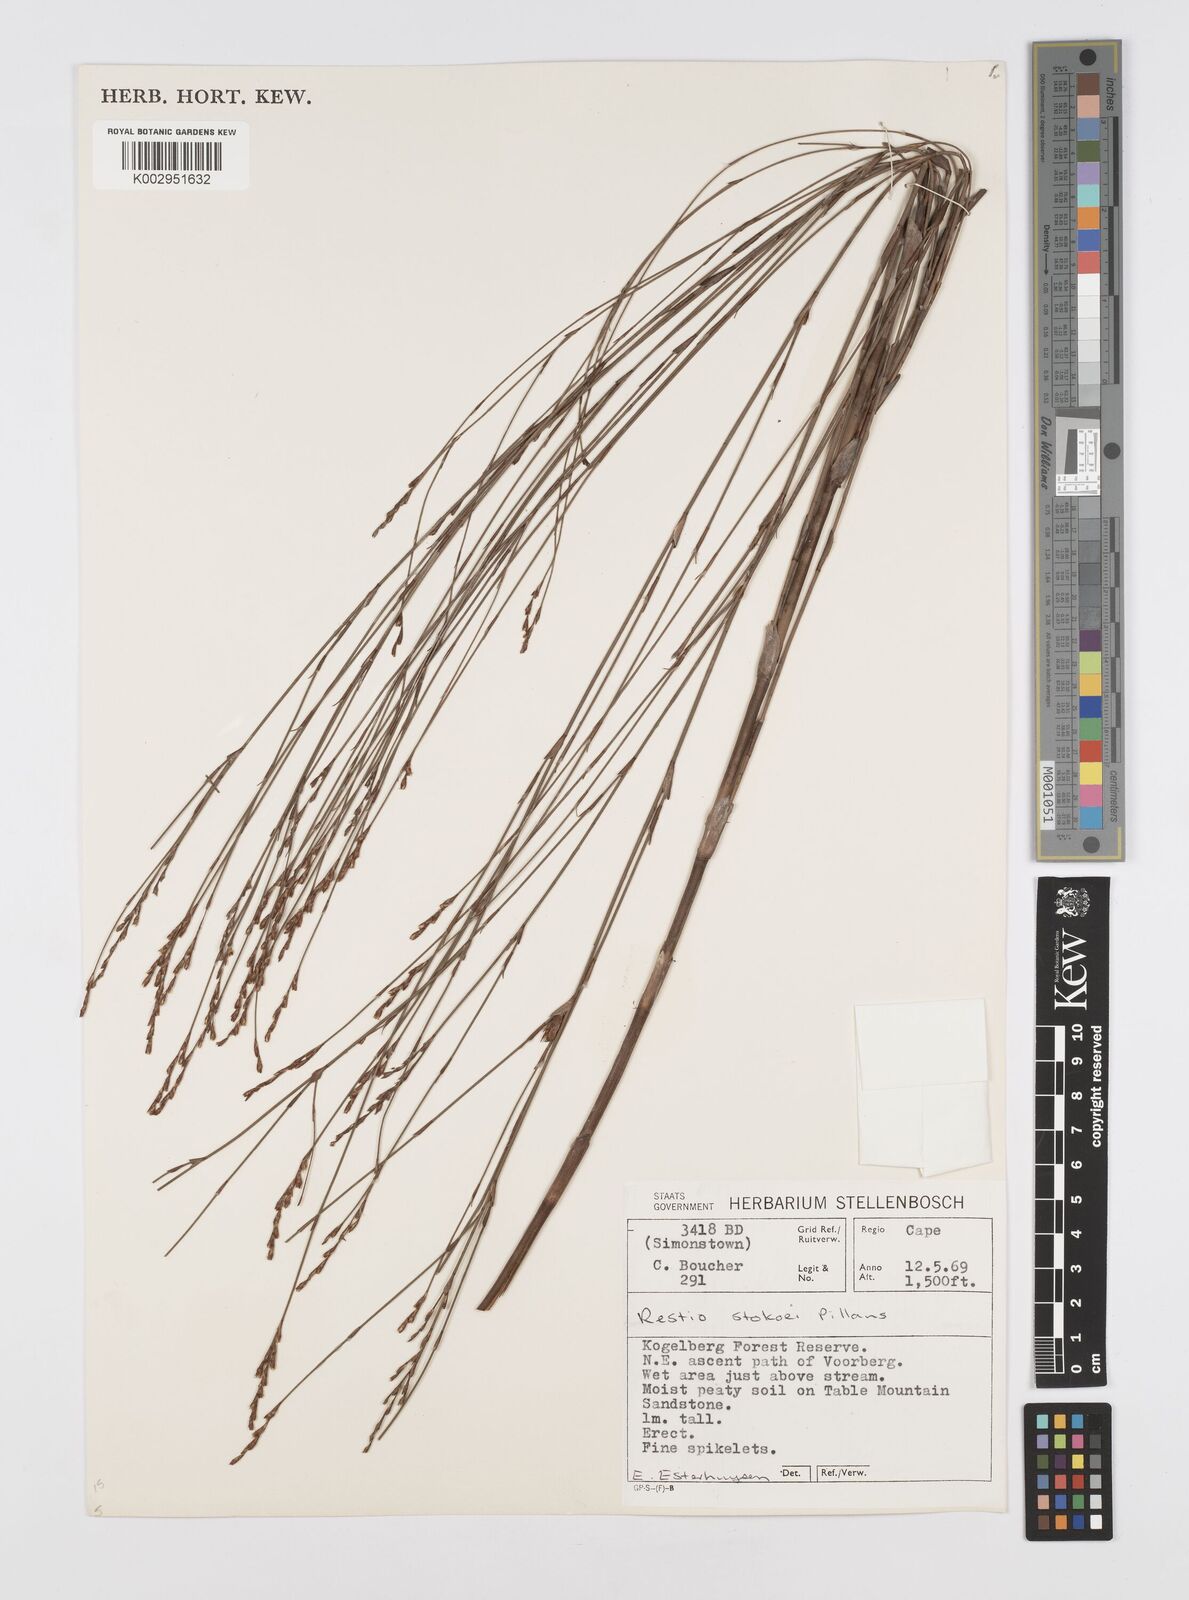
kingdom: Plantae
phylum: Tracheophyta
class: Liliopsida
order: Poales
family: Restionaceae
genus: Restio
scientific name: Restio stokoei
